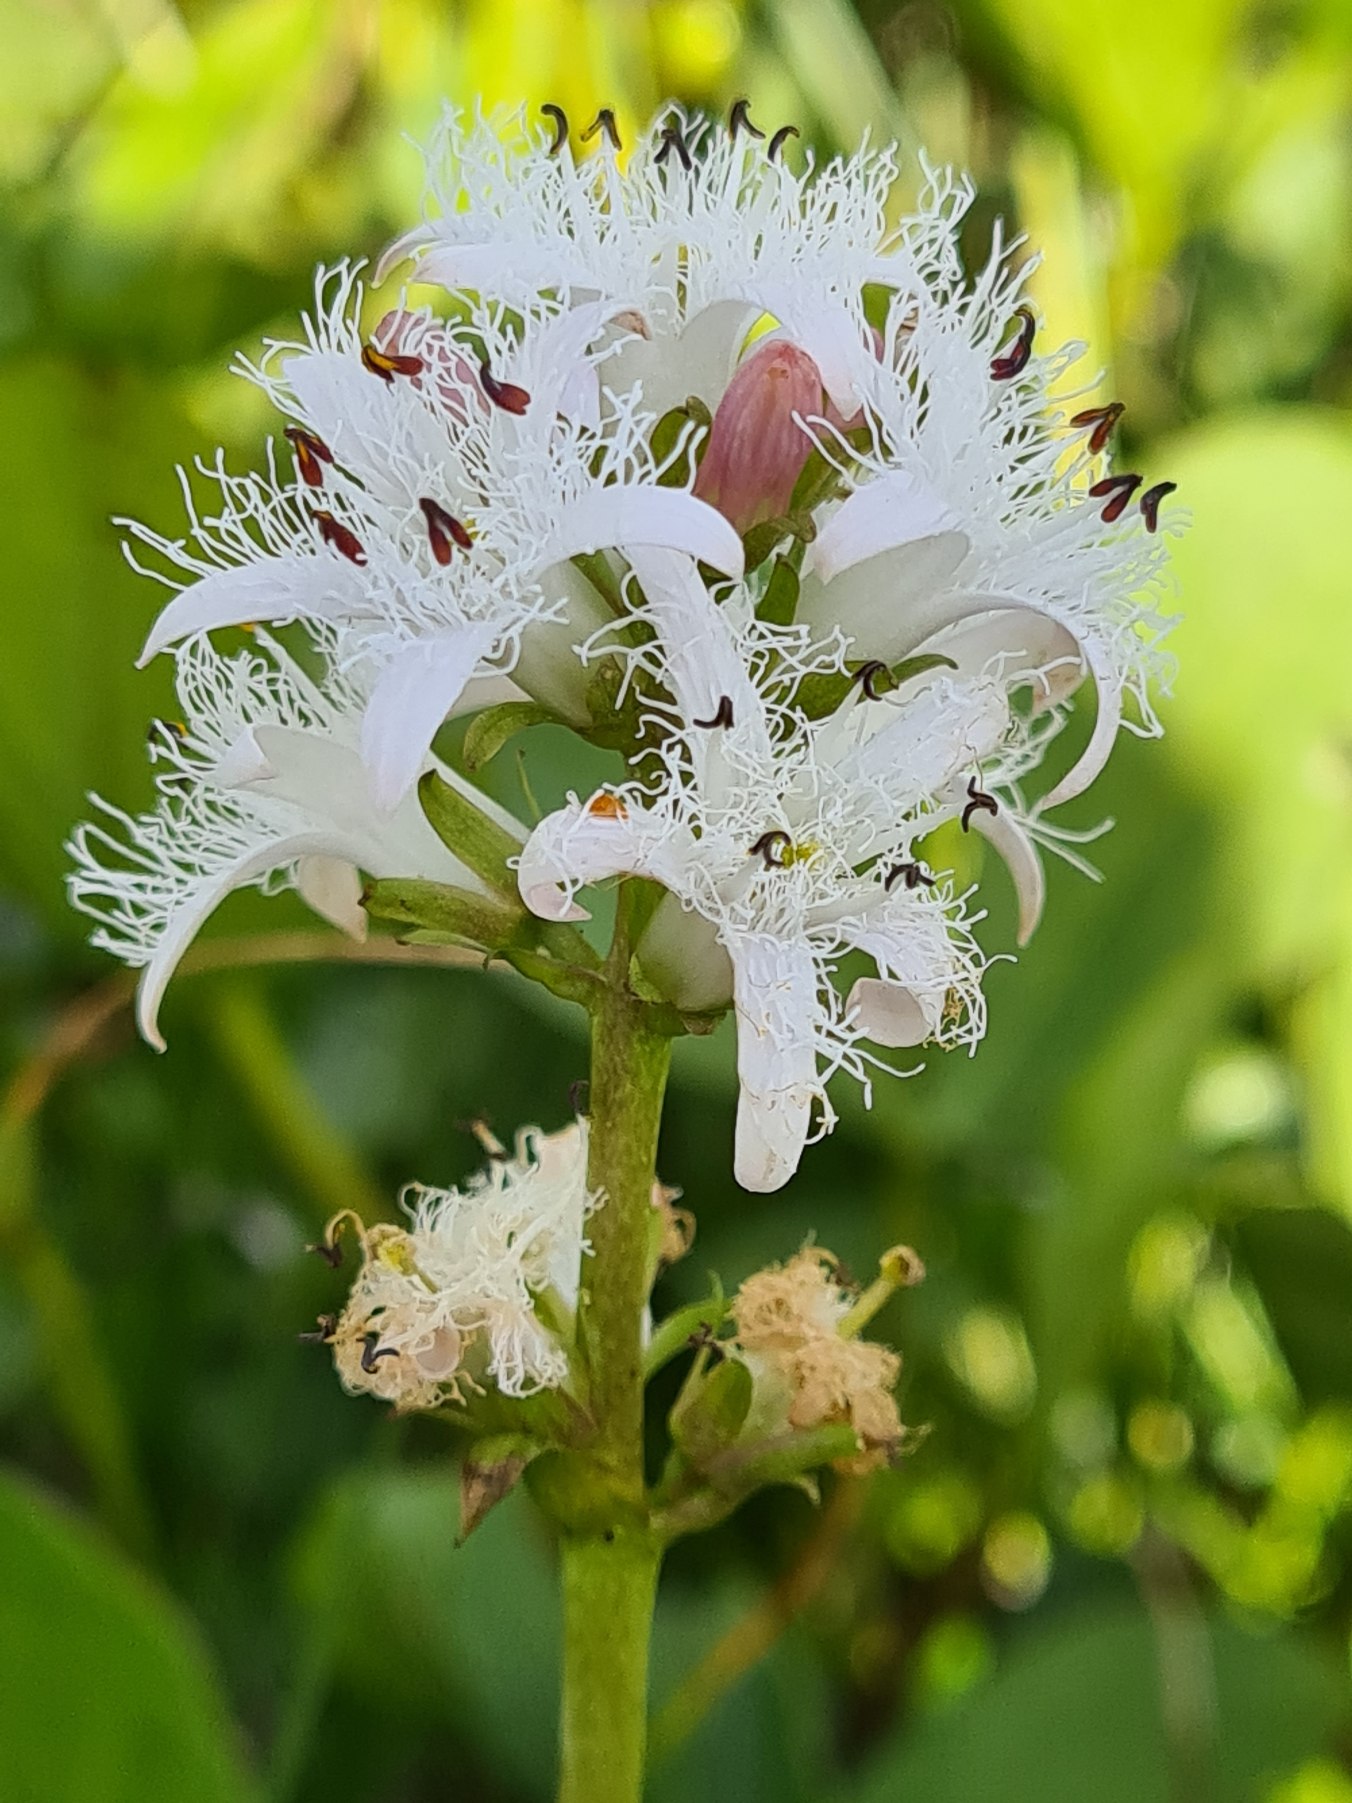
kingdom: Plantae
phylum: Tracheophyta
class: Magnoliopsida
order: Asterales
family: Menyanthaceae
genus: Menyanthes
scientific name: Menyanthes trifoliata
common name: Bukkeblad
